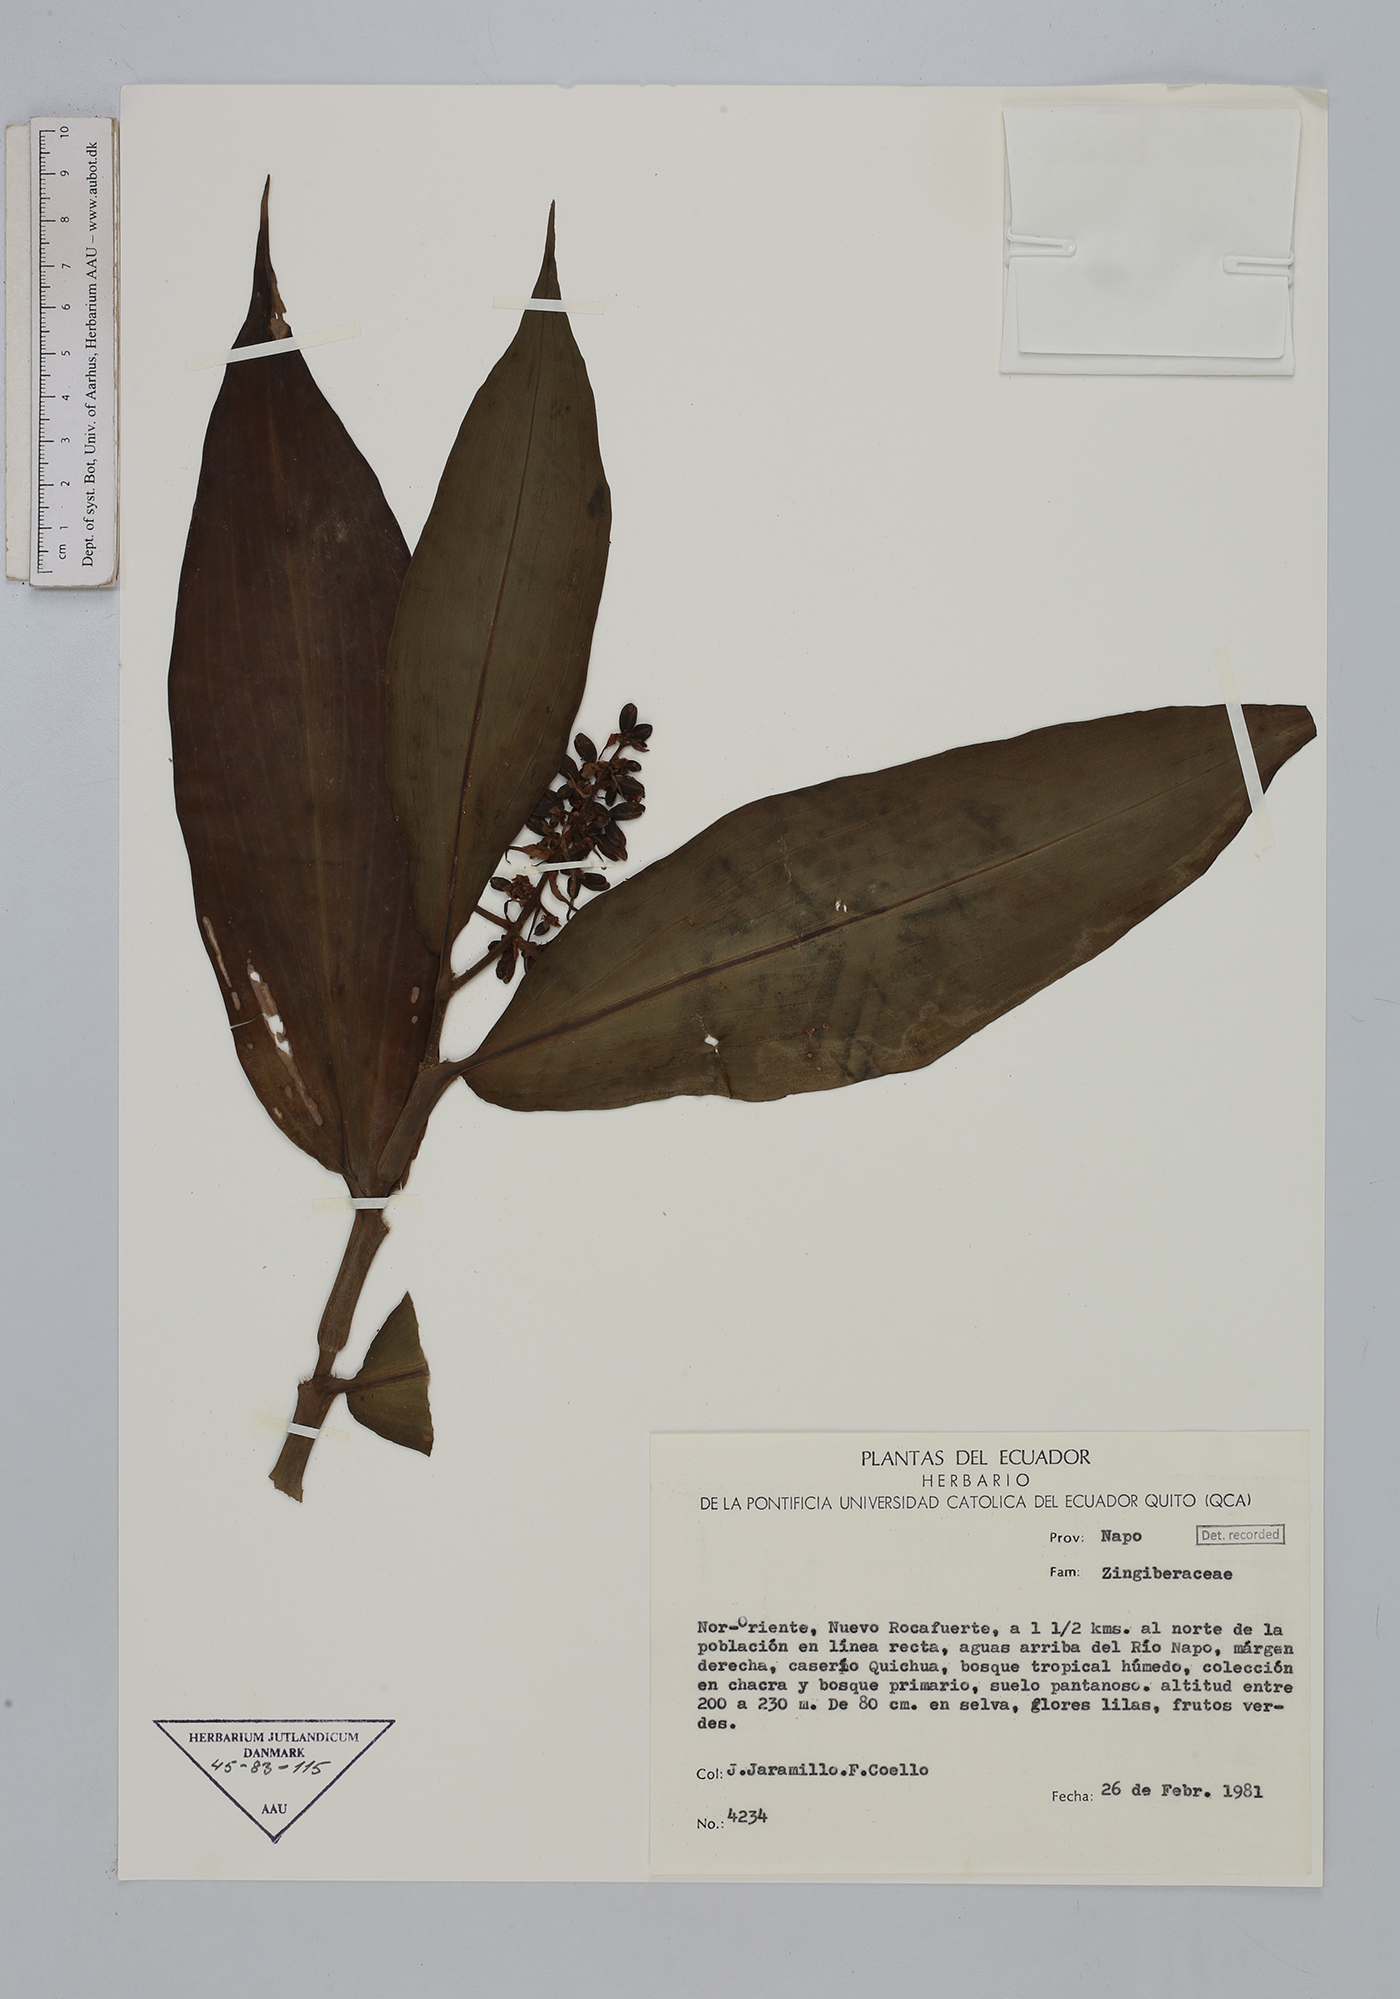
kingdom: Plantae
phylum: Tracheophyta
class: Liliopsida
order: Commelinales
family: Commelinaceae
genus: Dichorisandra
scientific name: Dichorisandra
